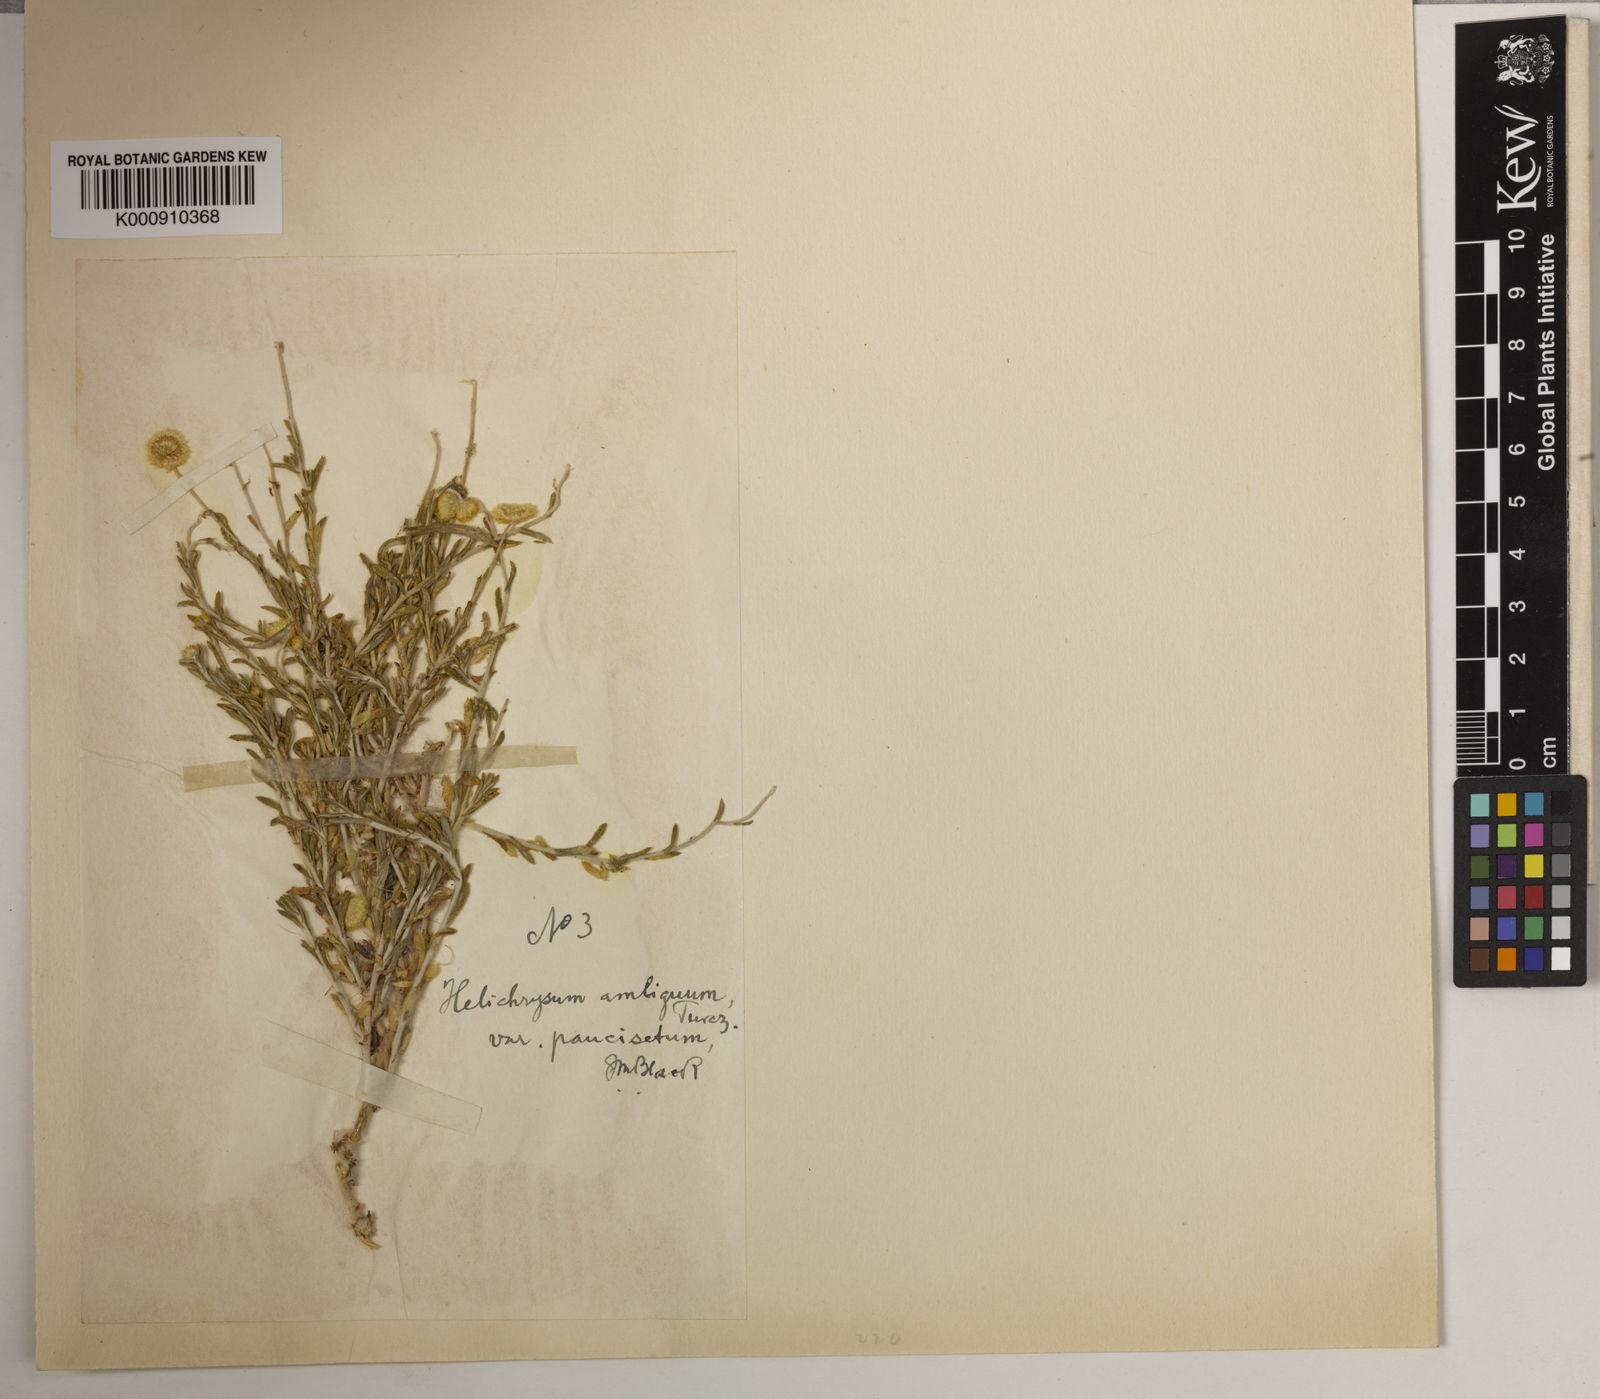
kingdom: Plantae
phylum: Tracheophyta
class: Magnoliopsida
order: Asterales
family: Asteraceae
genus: Leiocarpa
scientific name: Leiocarpa
